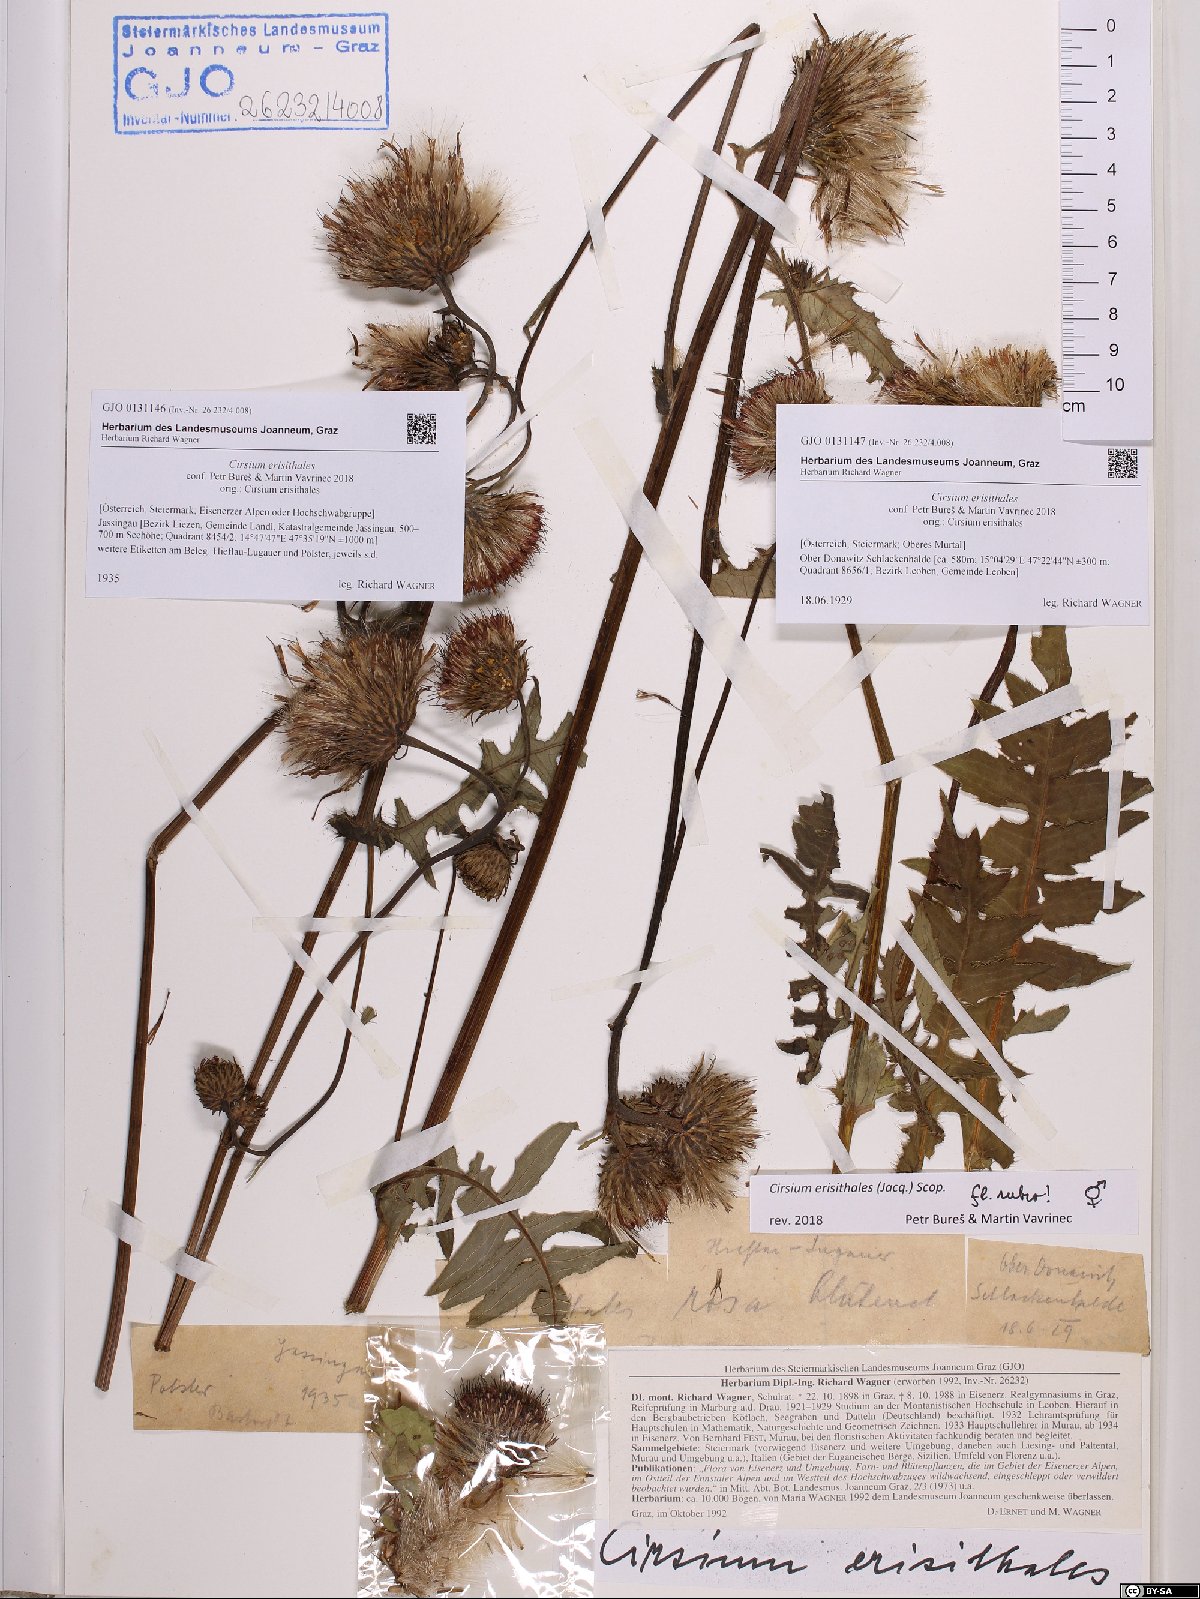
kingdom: Plantae
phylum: Tracheophyta
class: Magnoliopsida
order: Asterales
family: Asteraceae
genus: Cirsium
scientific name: Cirsium erisithales
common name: Yellow thistle
